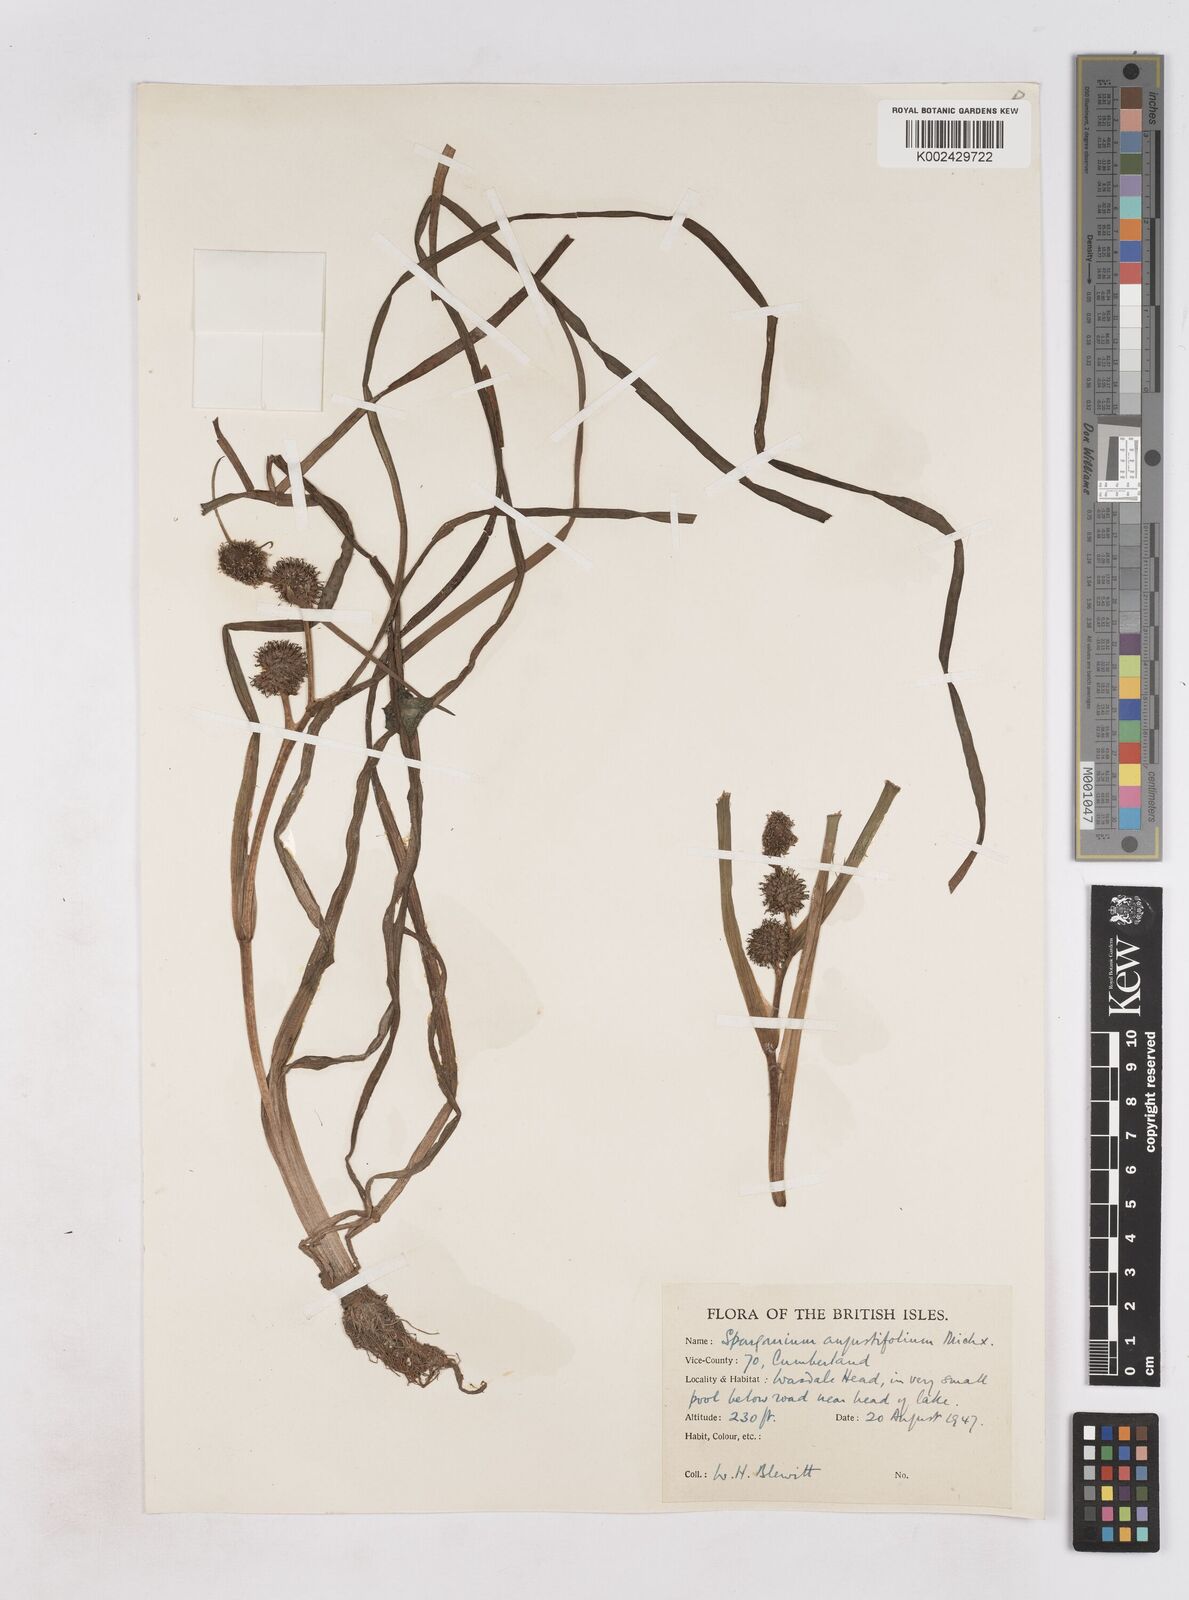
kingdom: Plantae
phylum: Tracheophyta
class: Liliopsida
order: Poales
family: Typhaceae
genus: Sparganium
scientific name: Sparganium angustifolium
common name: Floating bur-reed
